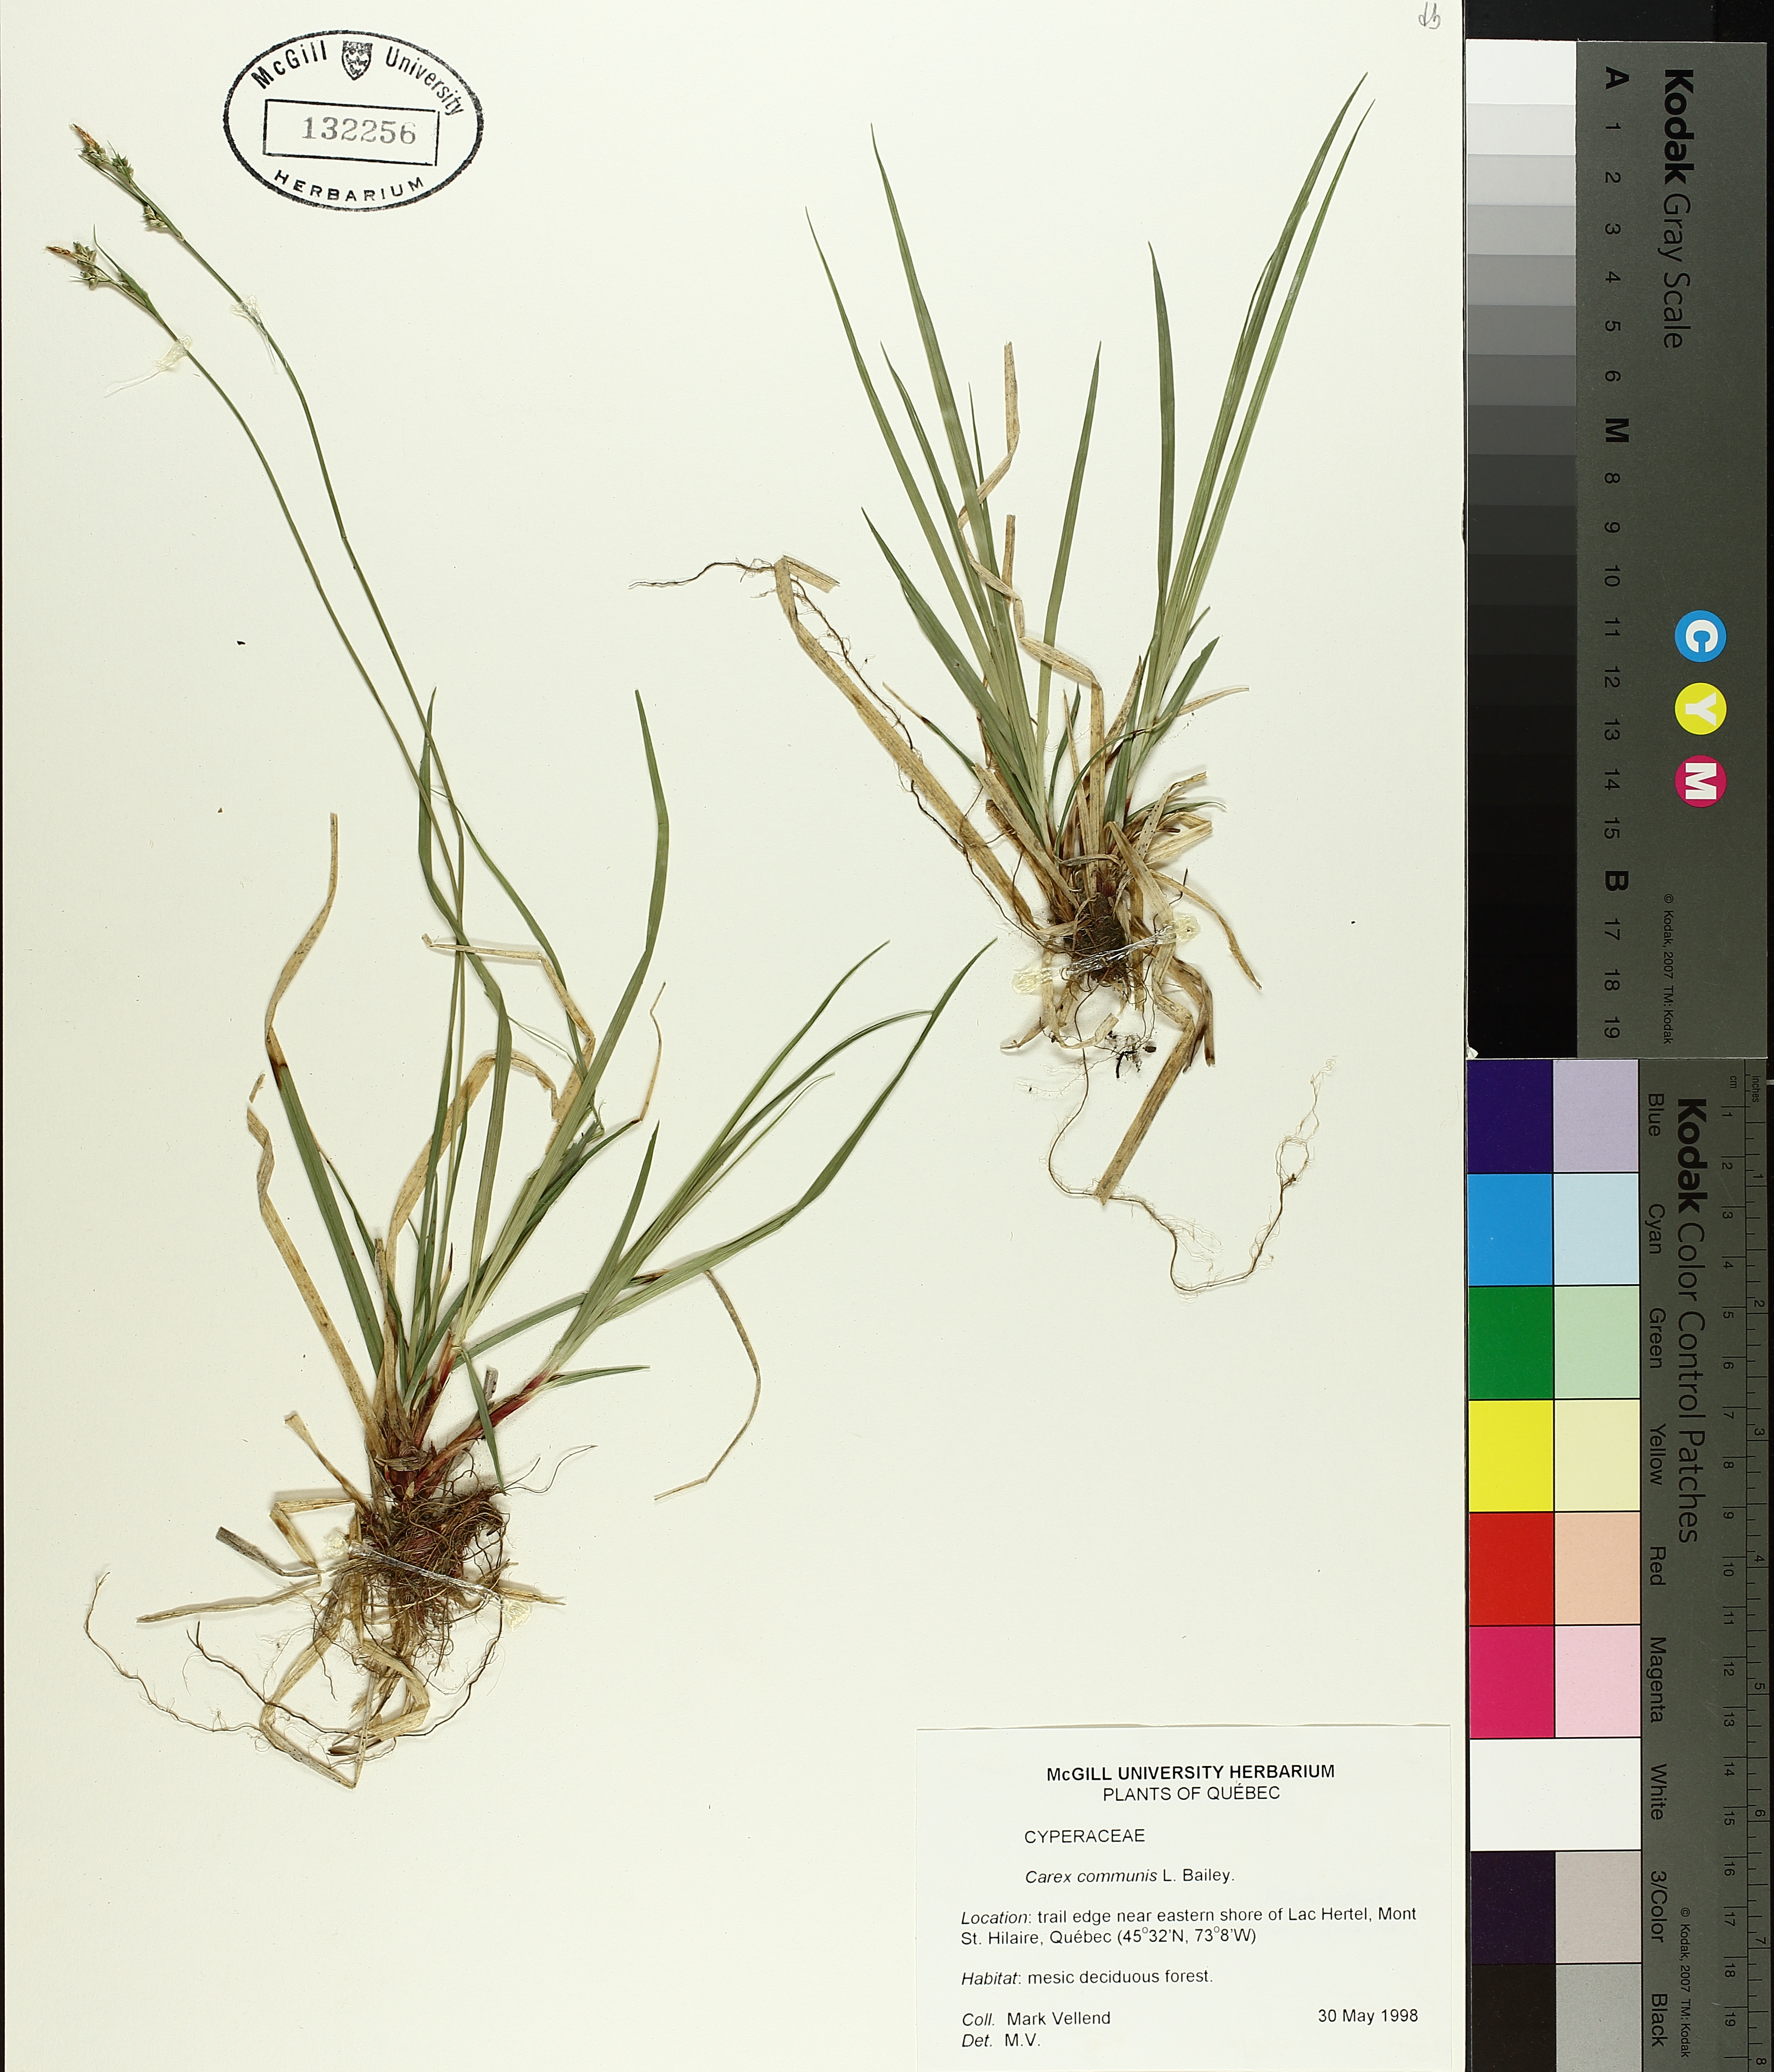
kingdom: Plantae
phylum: Tracheophyta
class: Liliopsida
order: Poales
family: Cyperaceae
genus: Carex
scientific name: Carex communis
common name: Colonial oak sedge
